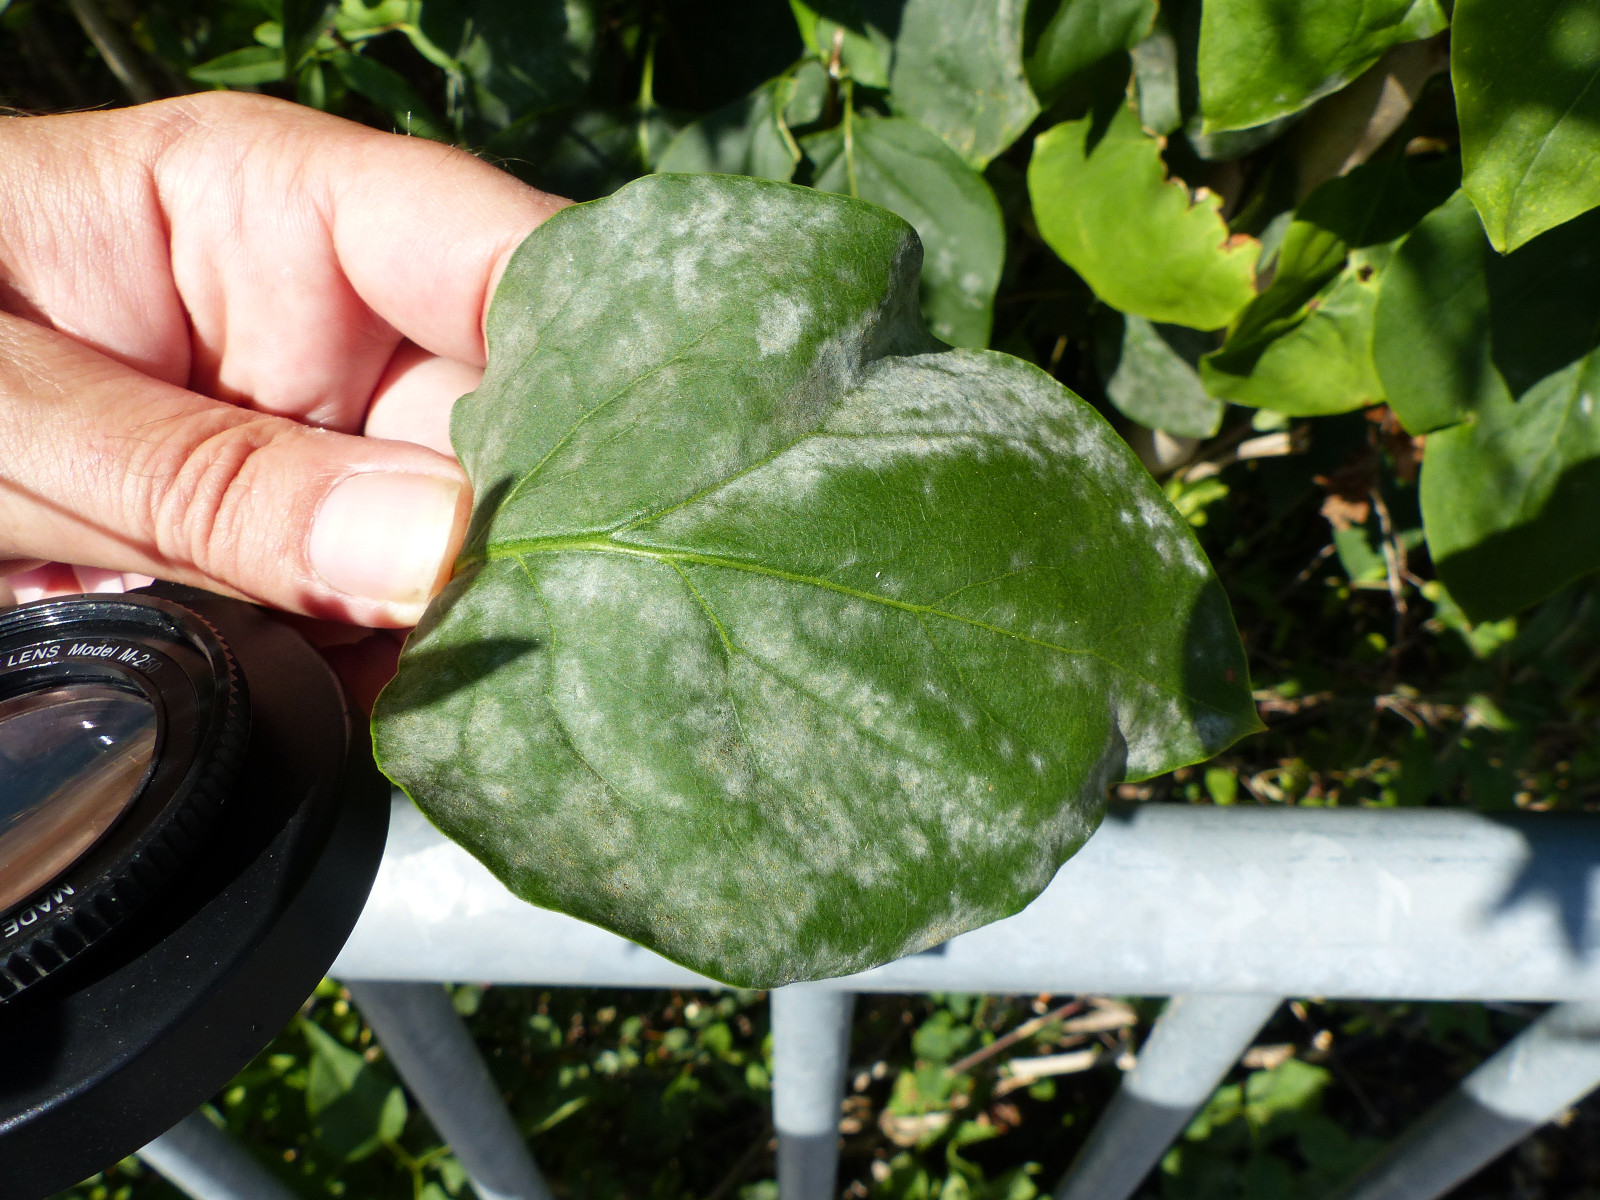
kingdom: Fungi
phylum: Ascomycota
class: Leotiomycetes
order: Helotiales
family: Erysiphaceae
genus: Erysiphe
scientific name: Erysiphe syringae-japonicae
